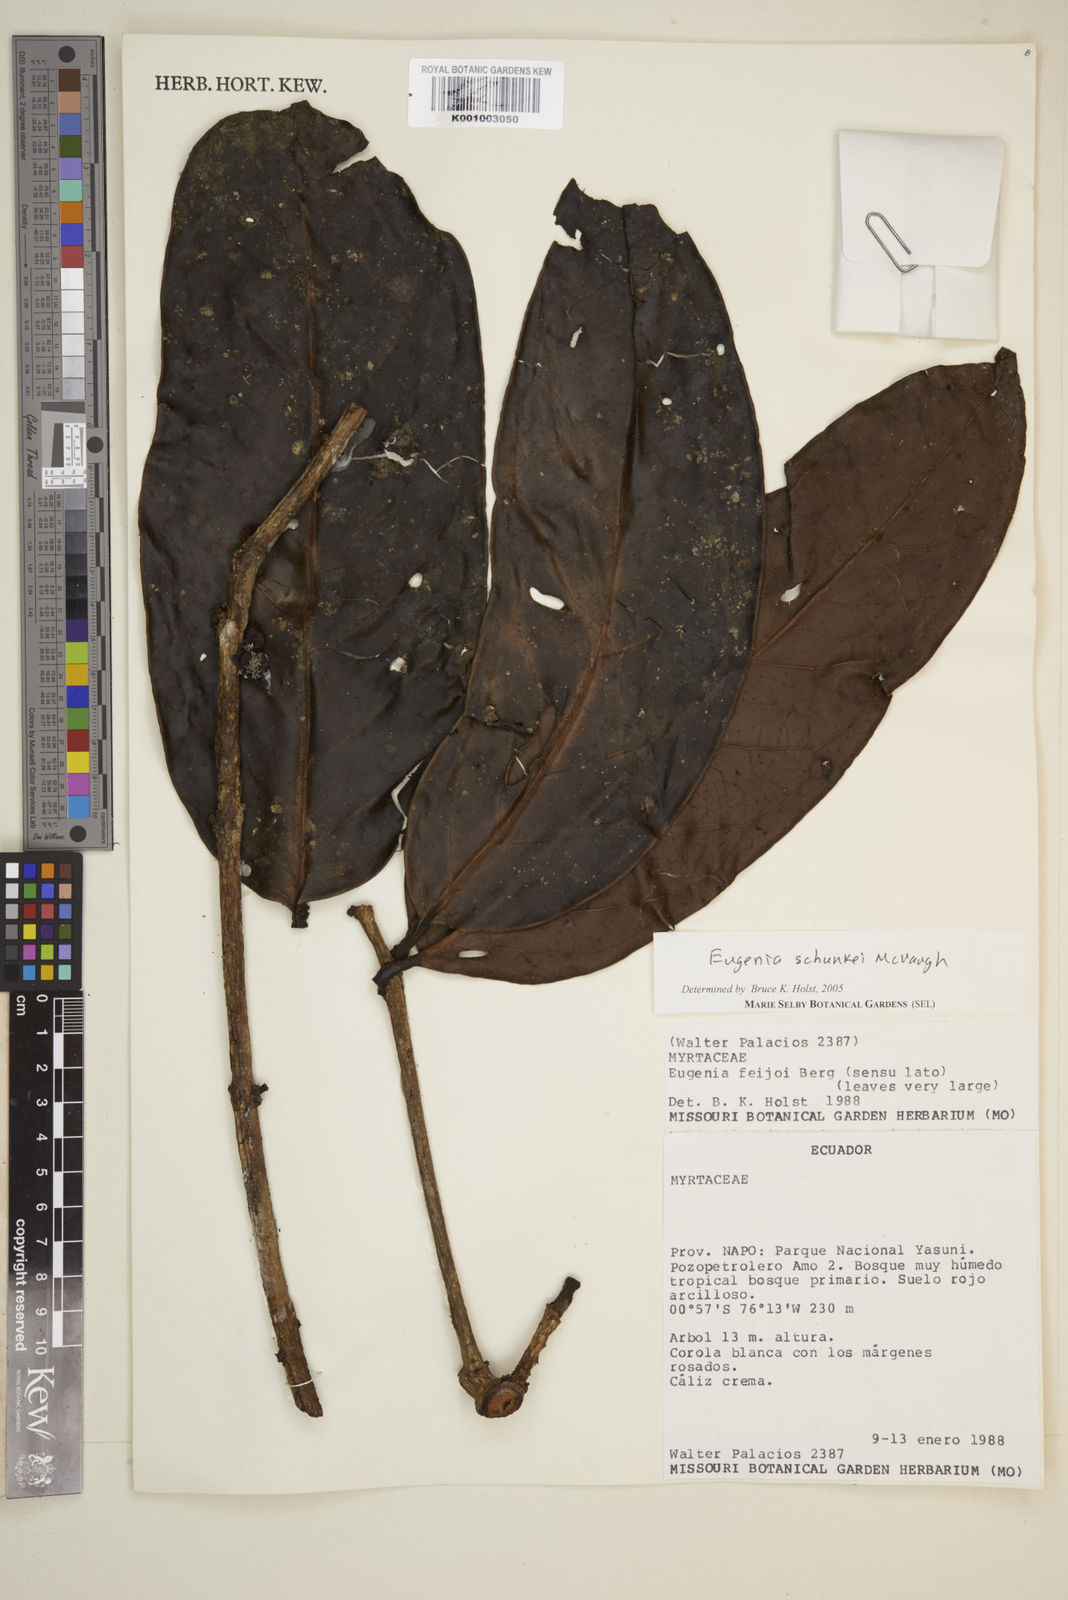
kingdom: Plantae
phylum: Tracheophyta
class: Magnoliopsida
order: Myrtales
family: Myrtaceae
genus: Eugenia
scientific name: Eugenia schunkei
